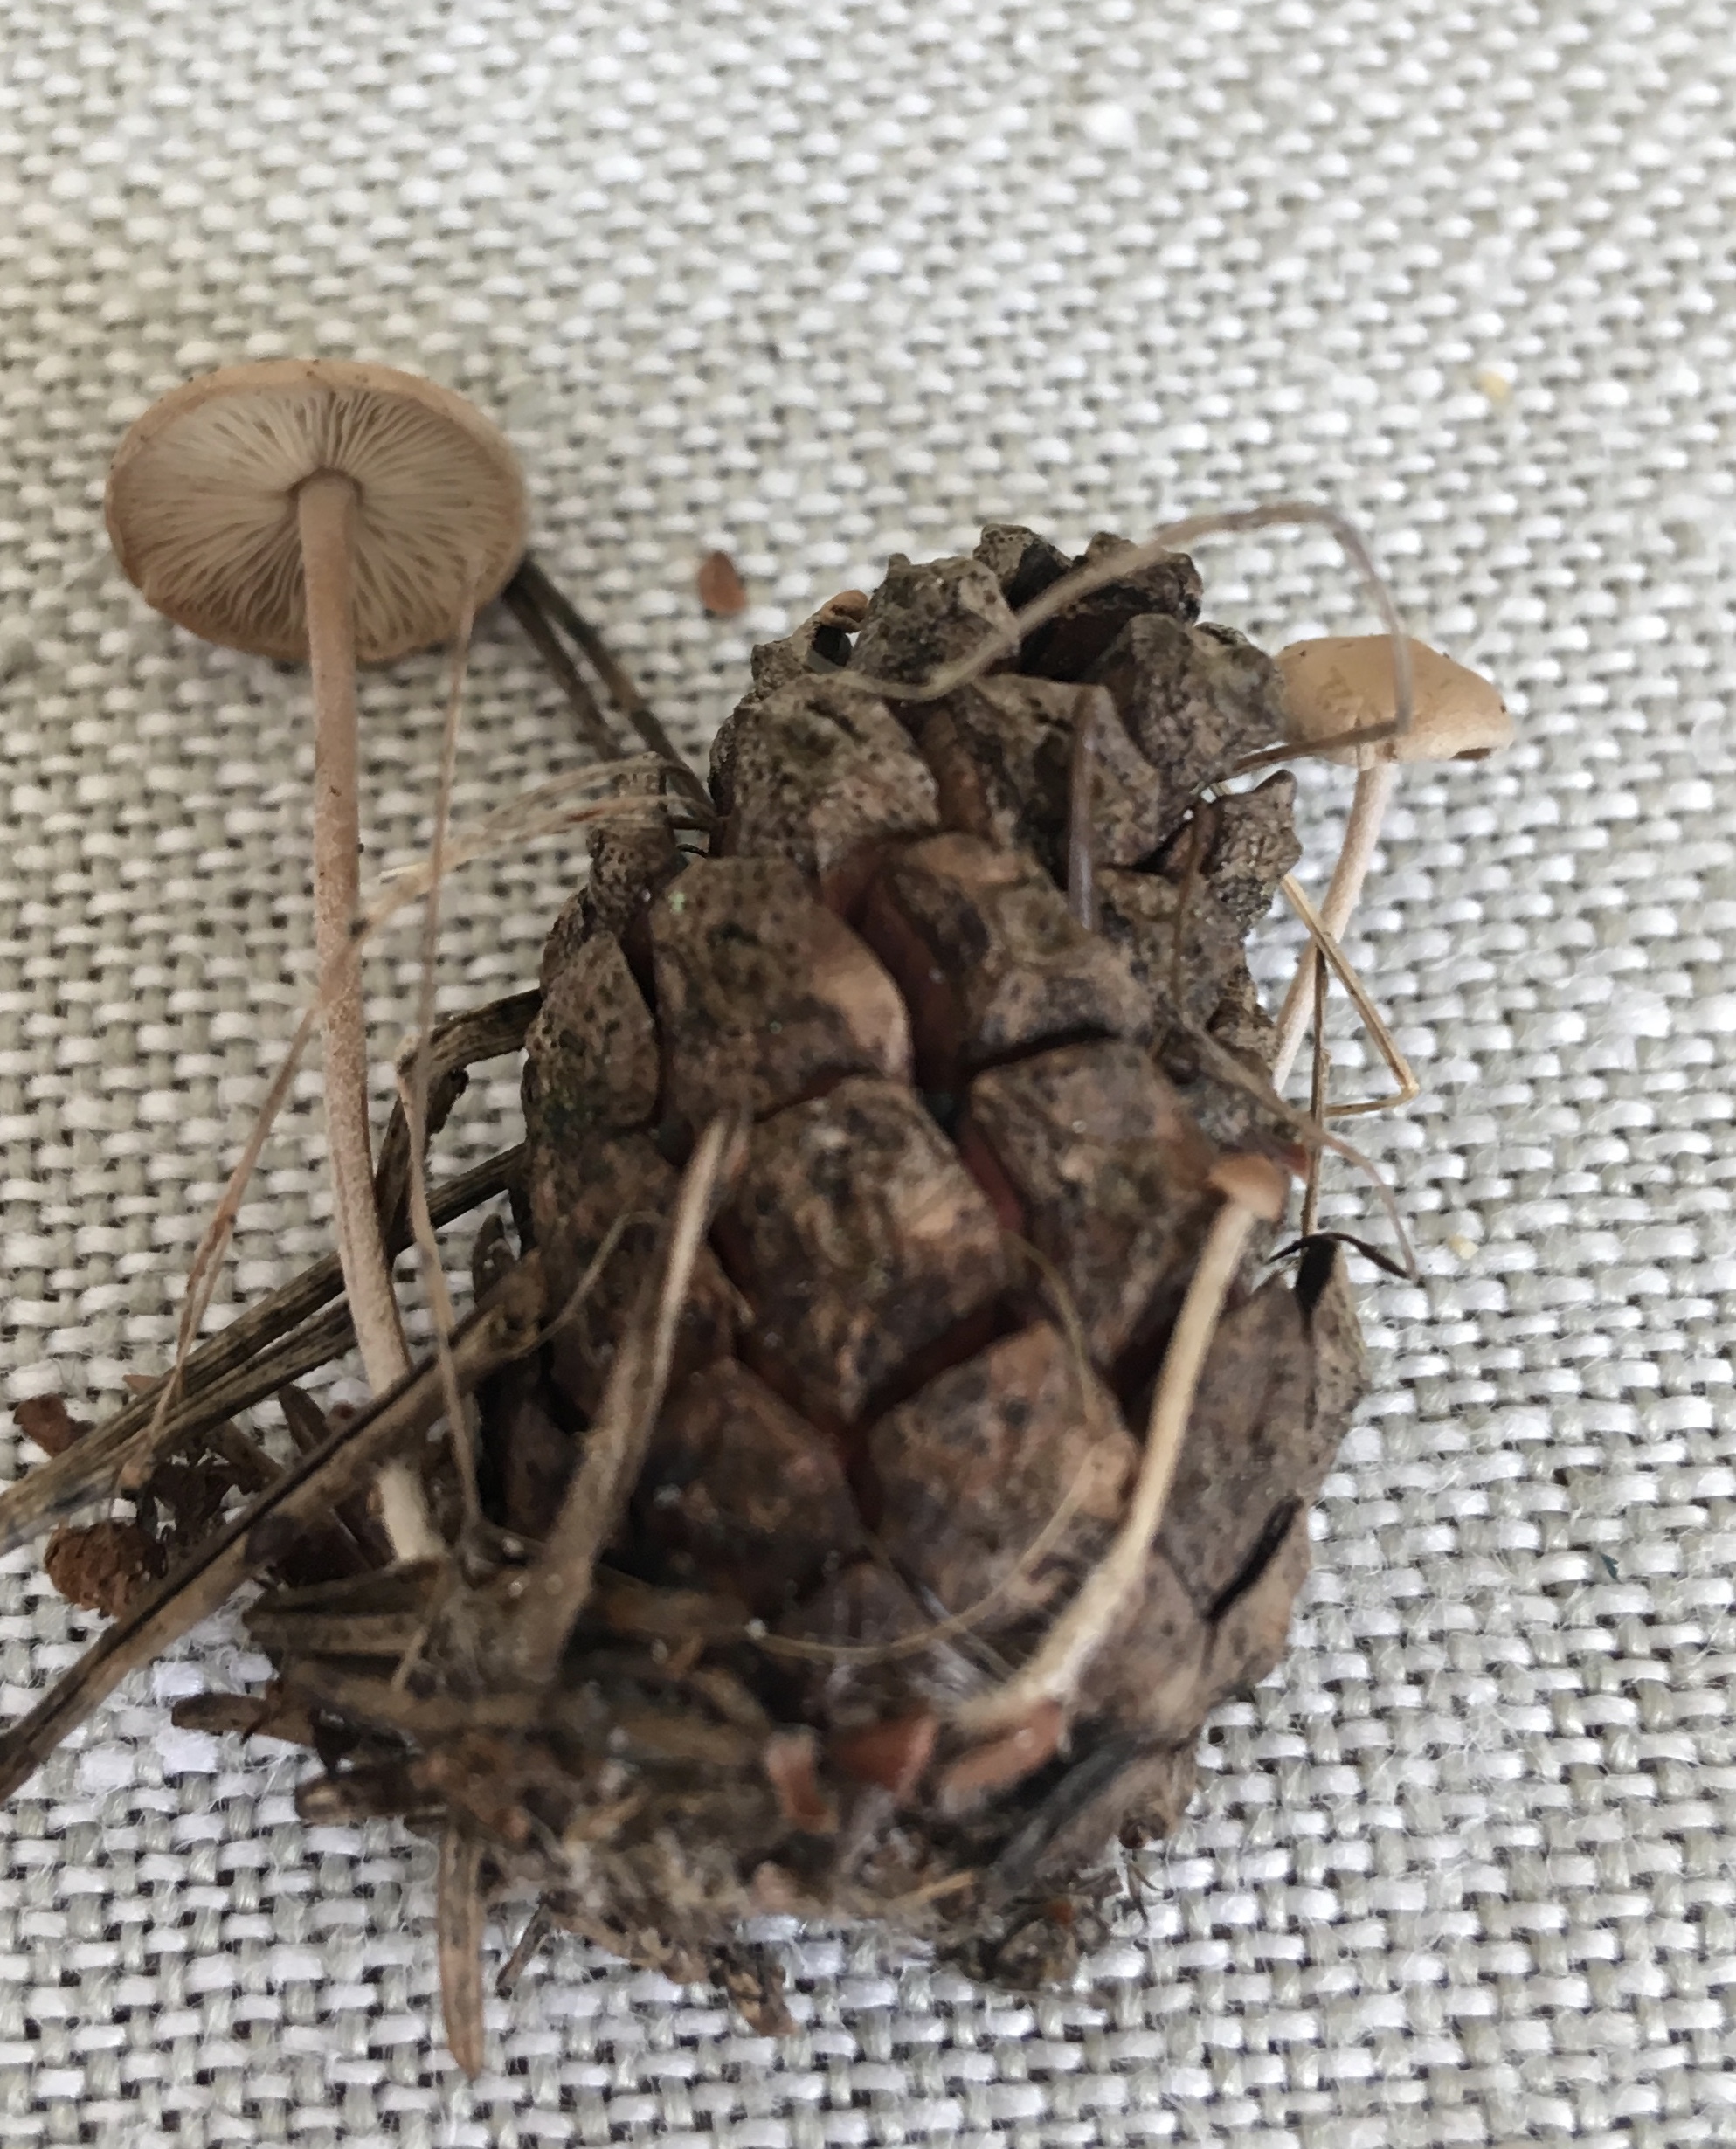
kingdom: Fungi
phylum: Basidiomycota
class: Agaricomycetes
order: Agaricales
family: Marasmiaceae
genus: Baeospora
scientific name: Baeospora myosura
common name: koglebruskhat
